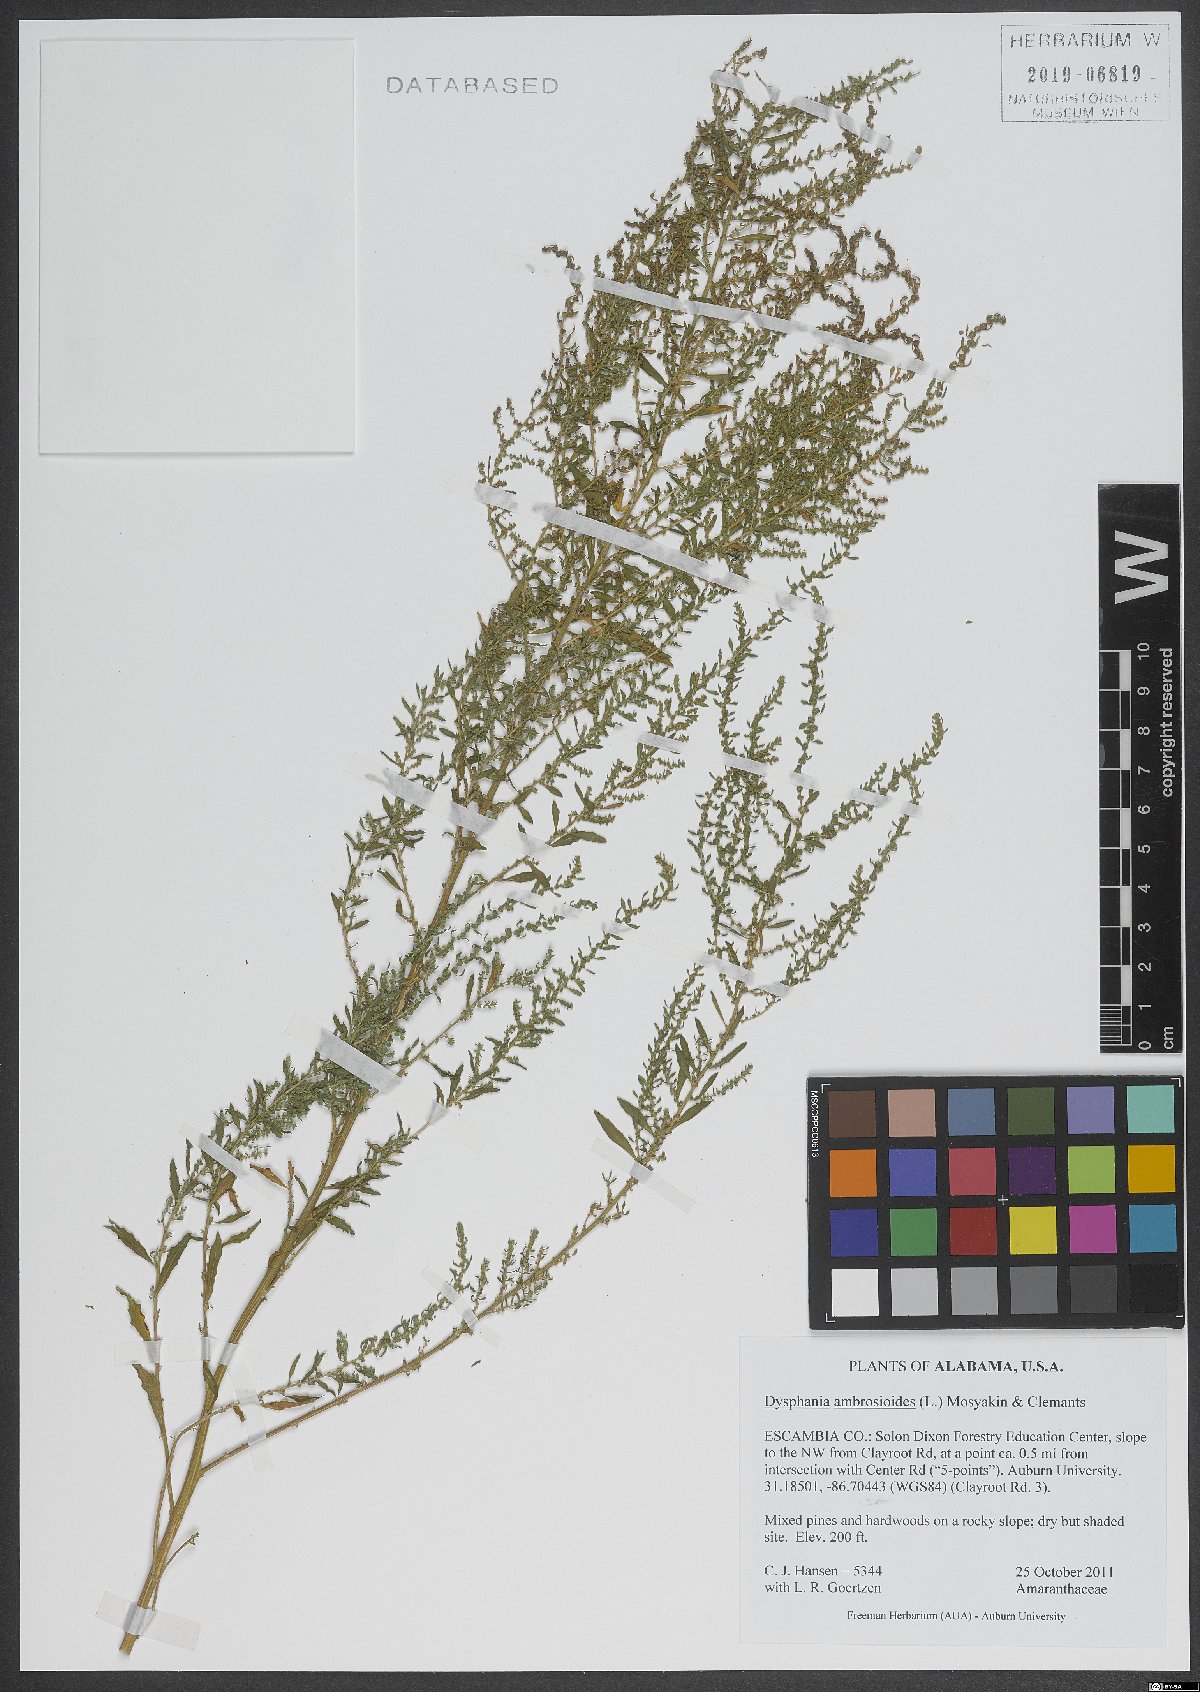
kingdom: Plantae
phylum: Tracheophyta
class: Magnoliopsida
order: Caryophyllales
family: Amaranthaceae
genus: Dysphania
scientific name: Dysphania ambrosioides
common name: Wormseed
